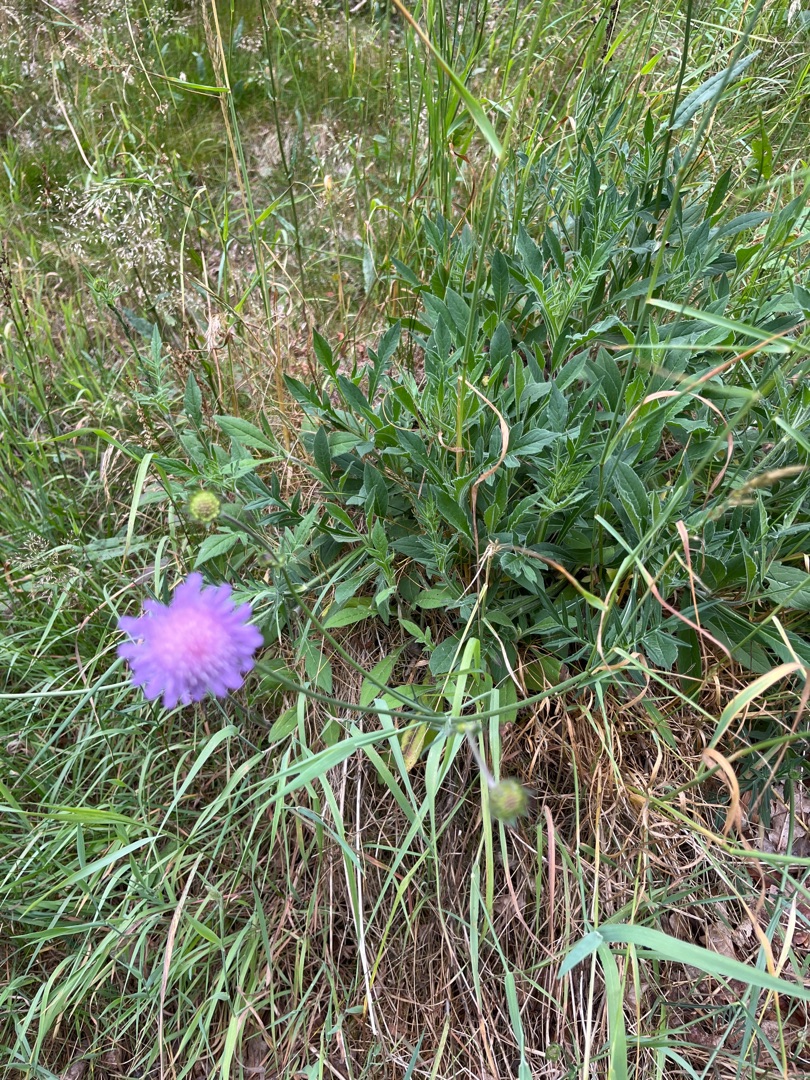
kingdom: Plantae
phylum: Tracheophyta
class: Magnoliopsida
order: Dipsacales
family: Caprifoliaceae
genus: Knautia
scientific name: Knautia arvensis
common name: Blåhat
